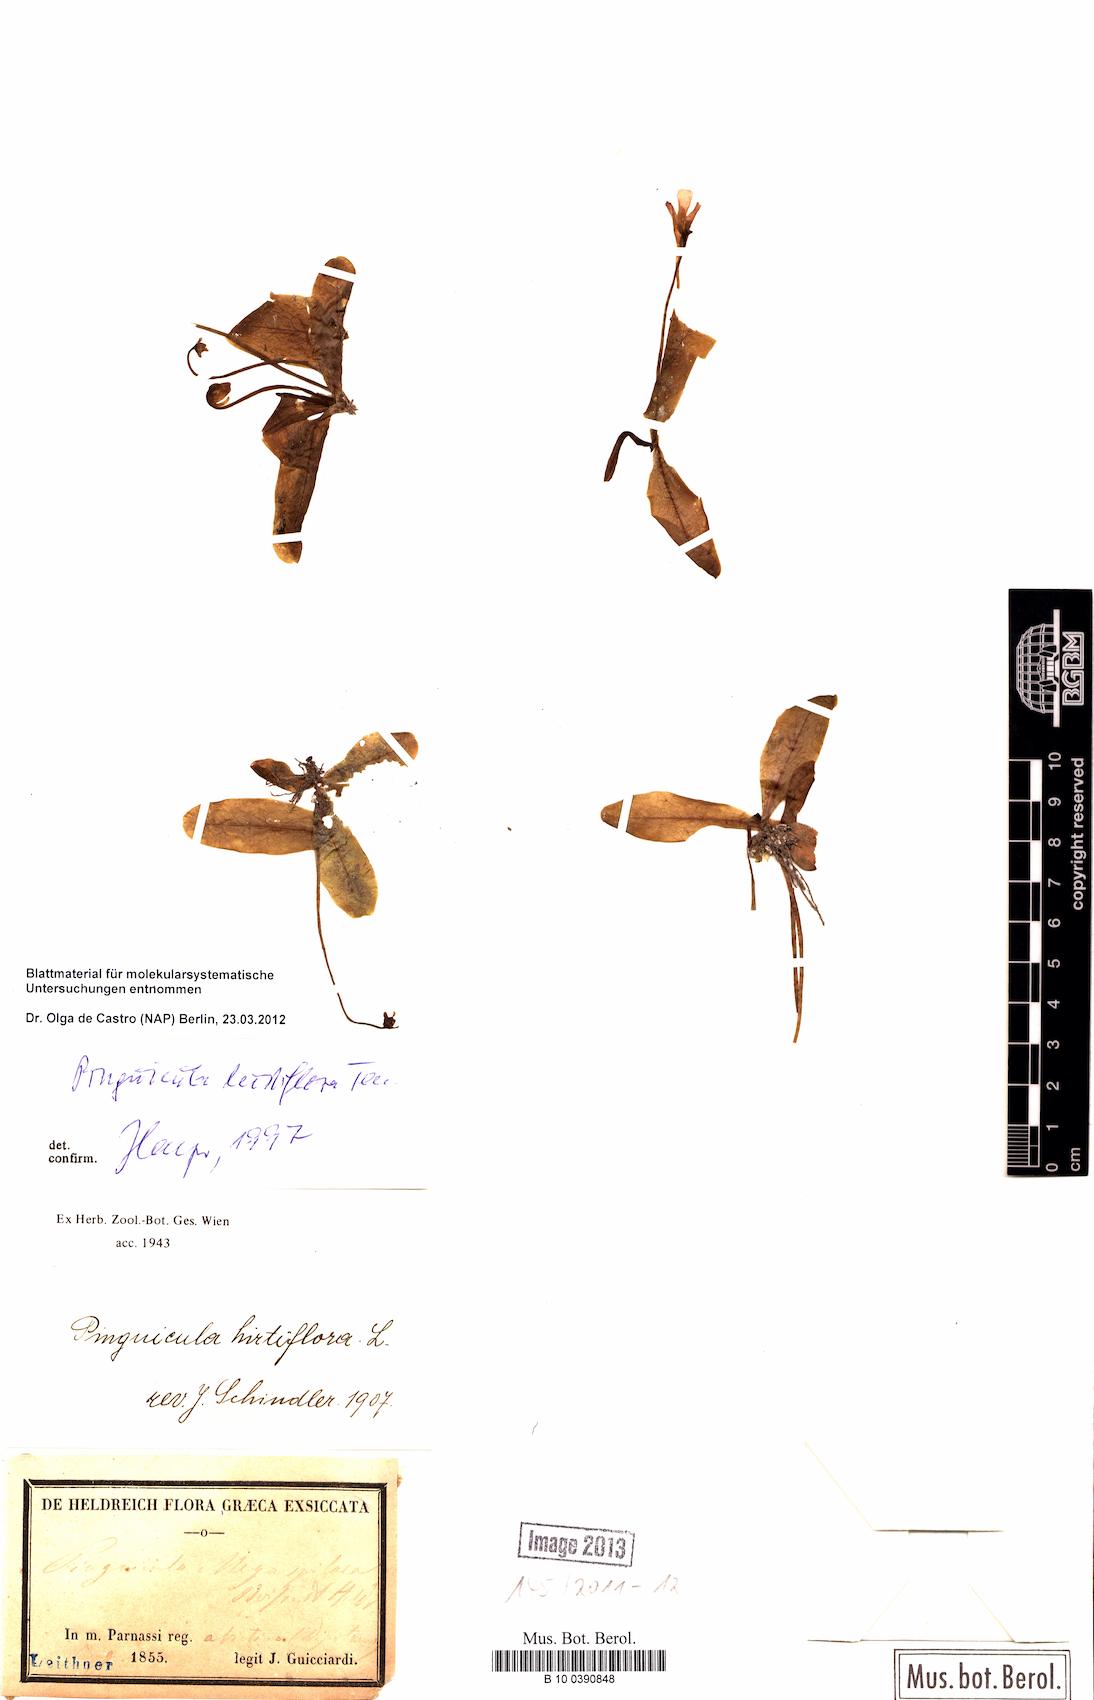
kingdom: Plantae
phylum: Tracheophyta
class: Magnoliopsida
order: Lamiales
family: Lentibulariaceae
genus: Pinguicula
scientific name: Pinguicula crystallina
